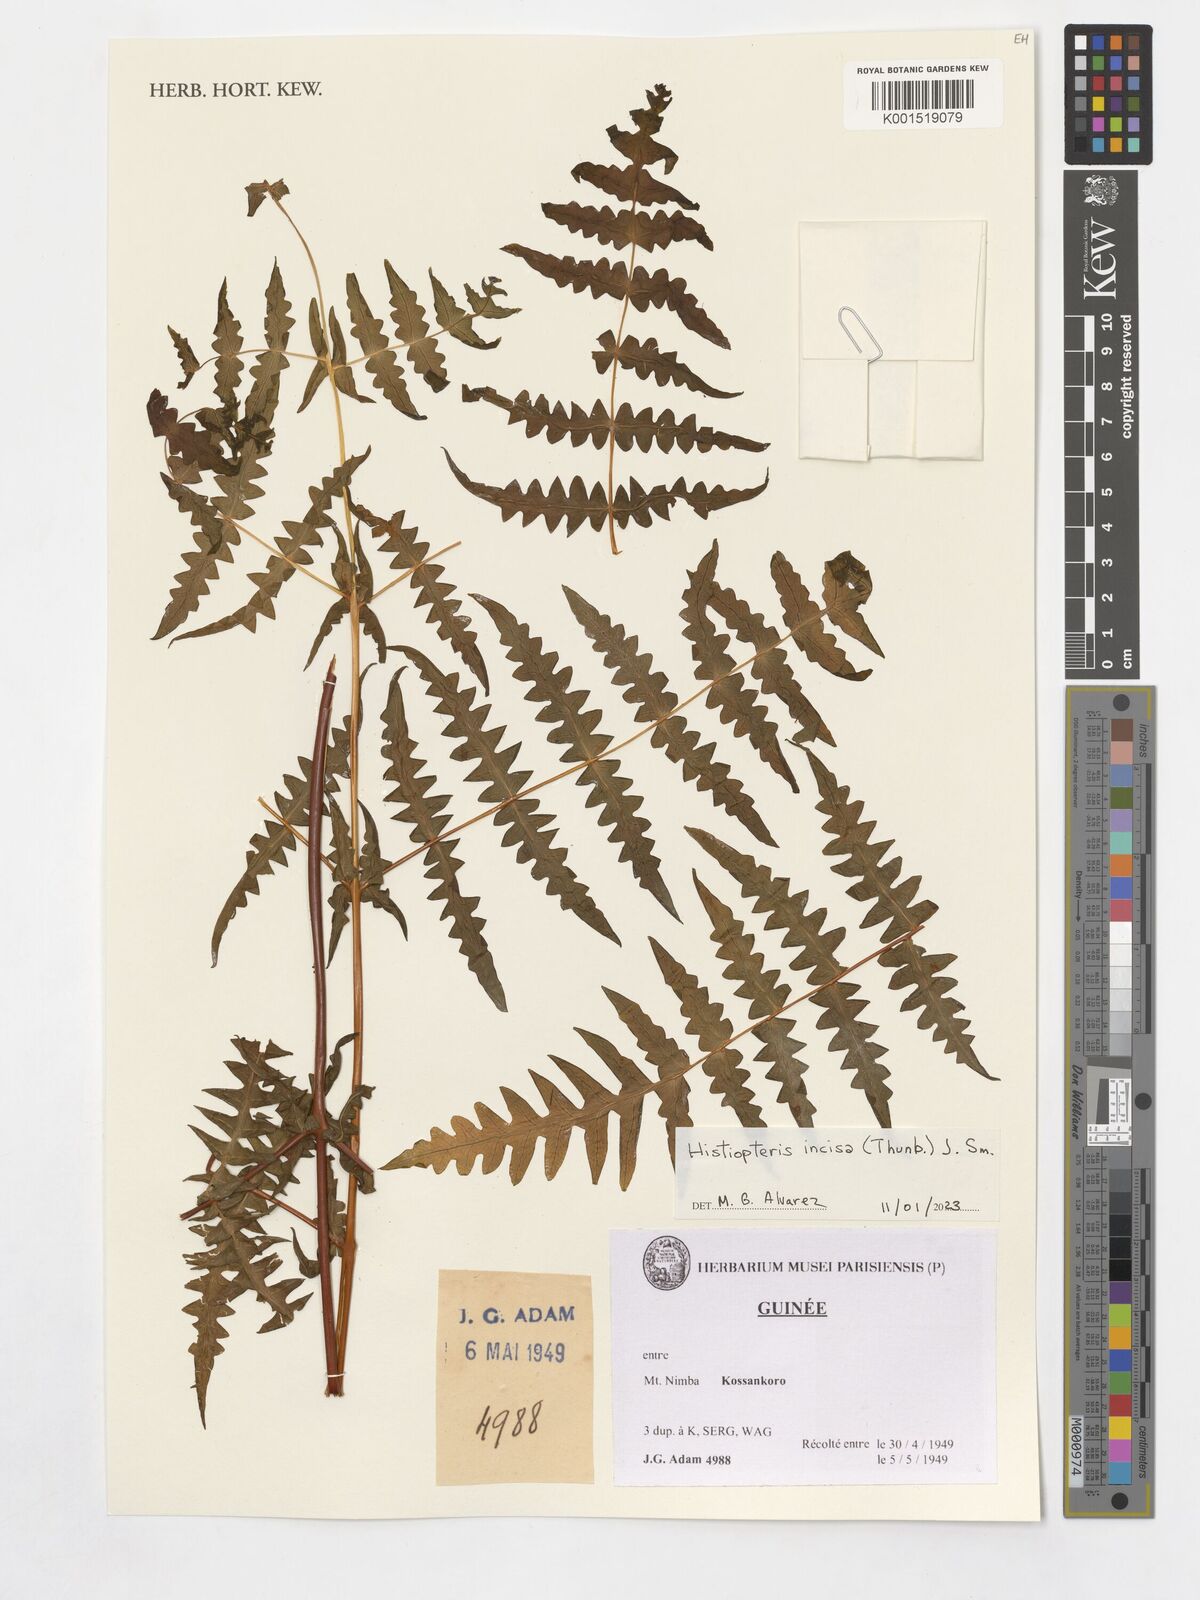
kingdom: Plantae
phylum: Tracheophyta
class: Polypodiopsida
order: Polypodiales
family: Dennstaedtiaceae
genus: Histiopteris
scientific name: Histiopteris incisa
